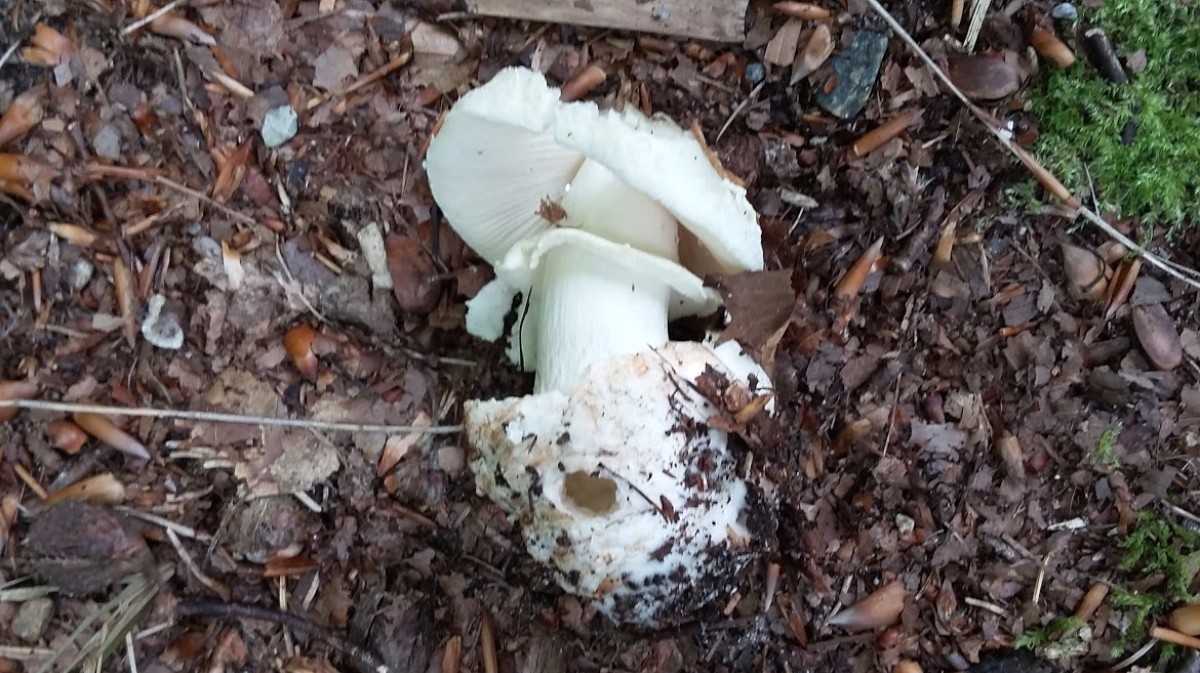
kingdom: Fungi
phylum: Basidiomycota
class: Agaricomycetes
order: Agaricales
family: Amanitaceae
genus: Amanita
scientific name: Amanita citrina
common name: kugleknoldet fluesvamp
